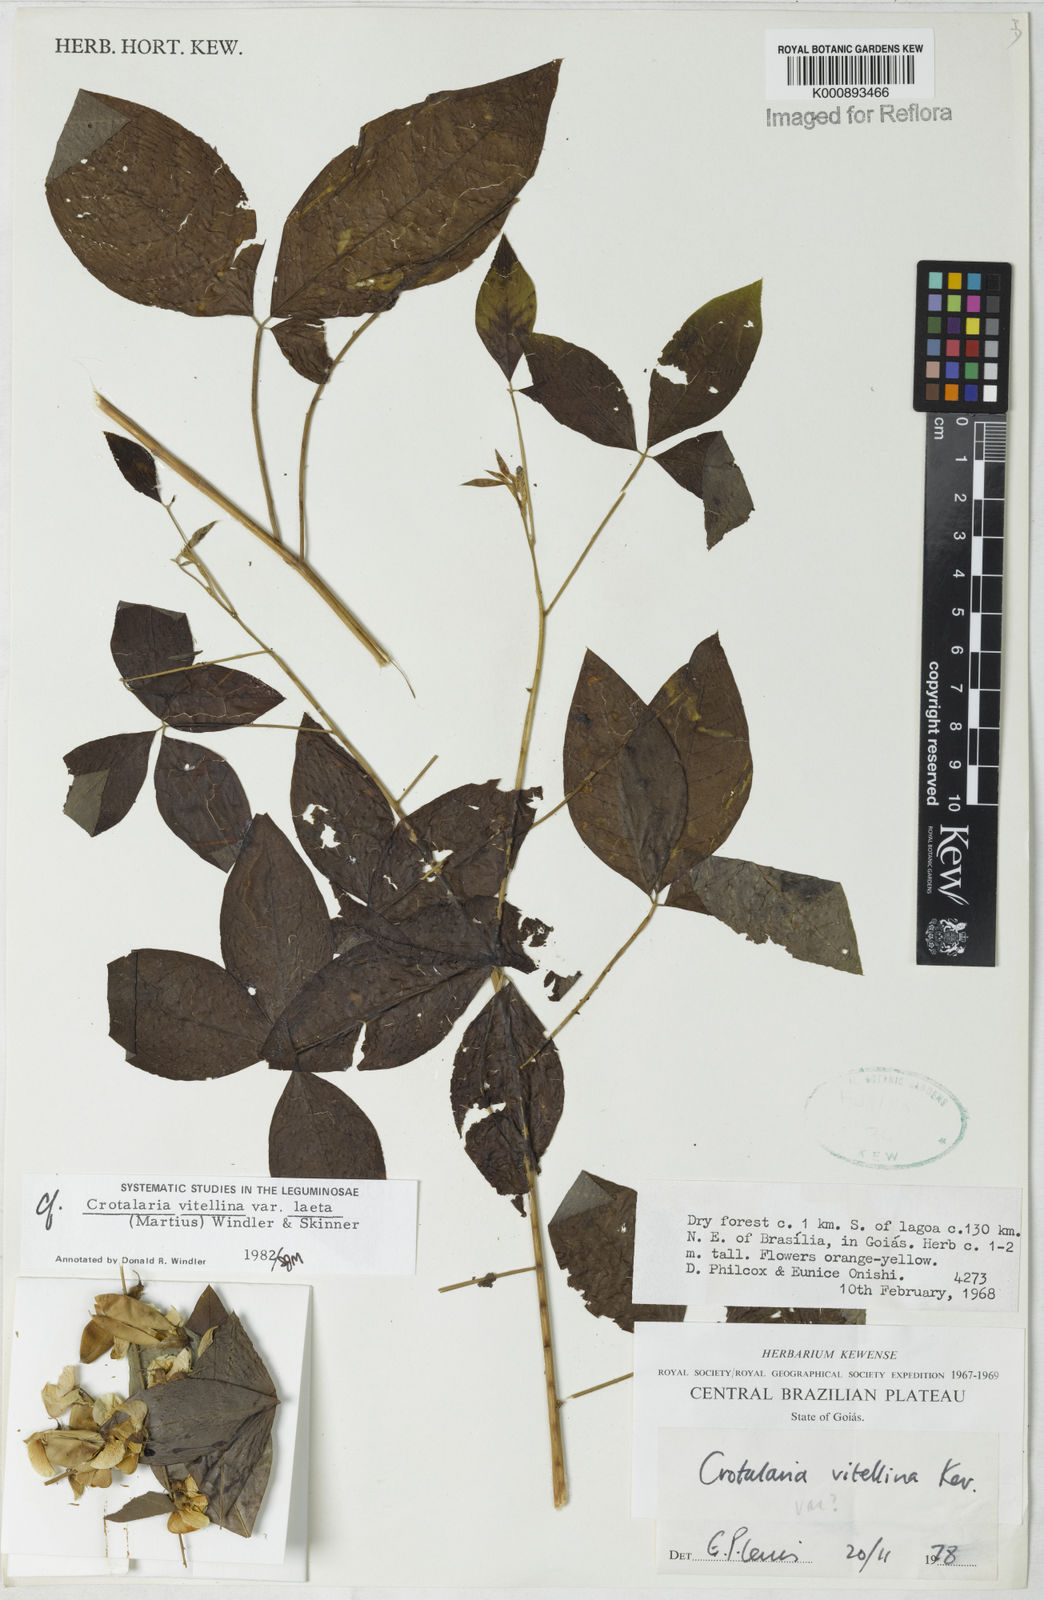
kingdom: Plantae
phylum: Tracheophyta
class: Magnoliopsida
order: Fabales
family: Fabaceae
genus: Crotalaria
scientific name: Crotalaria laeta
